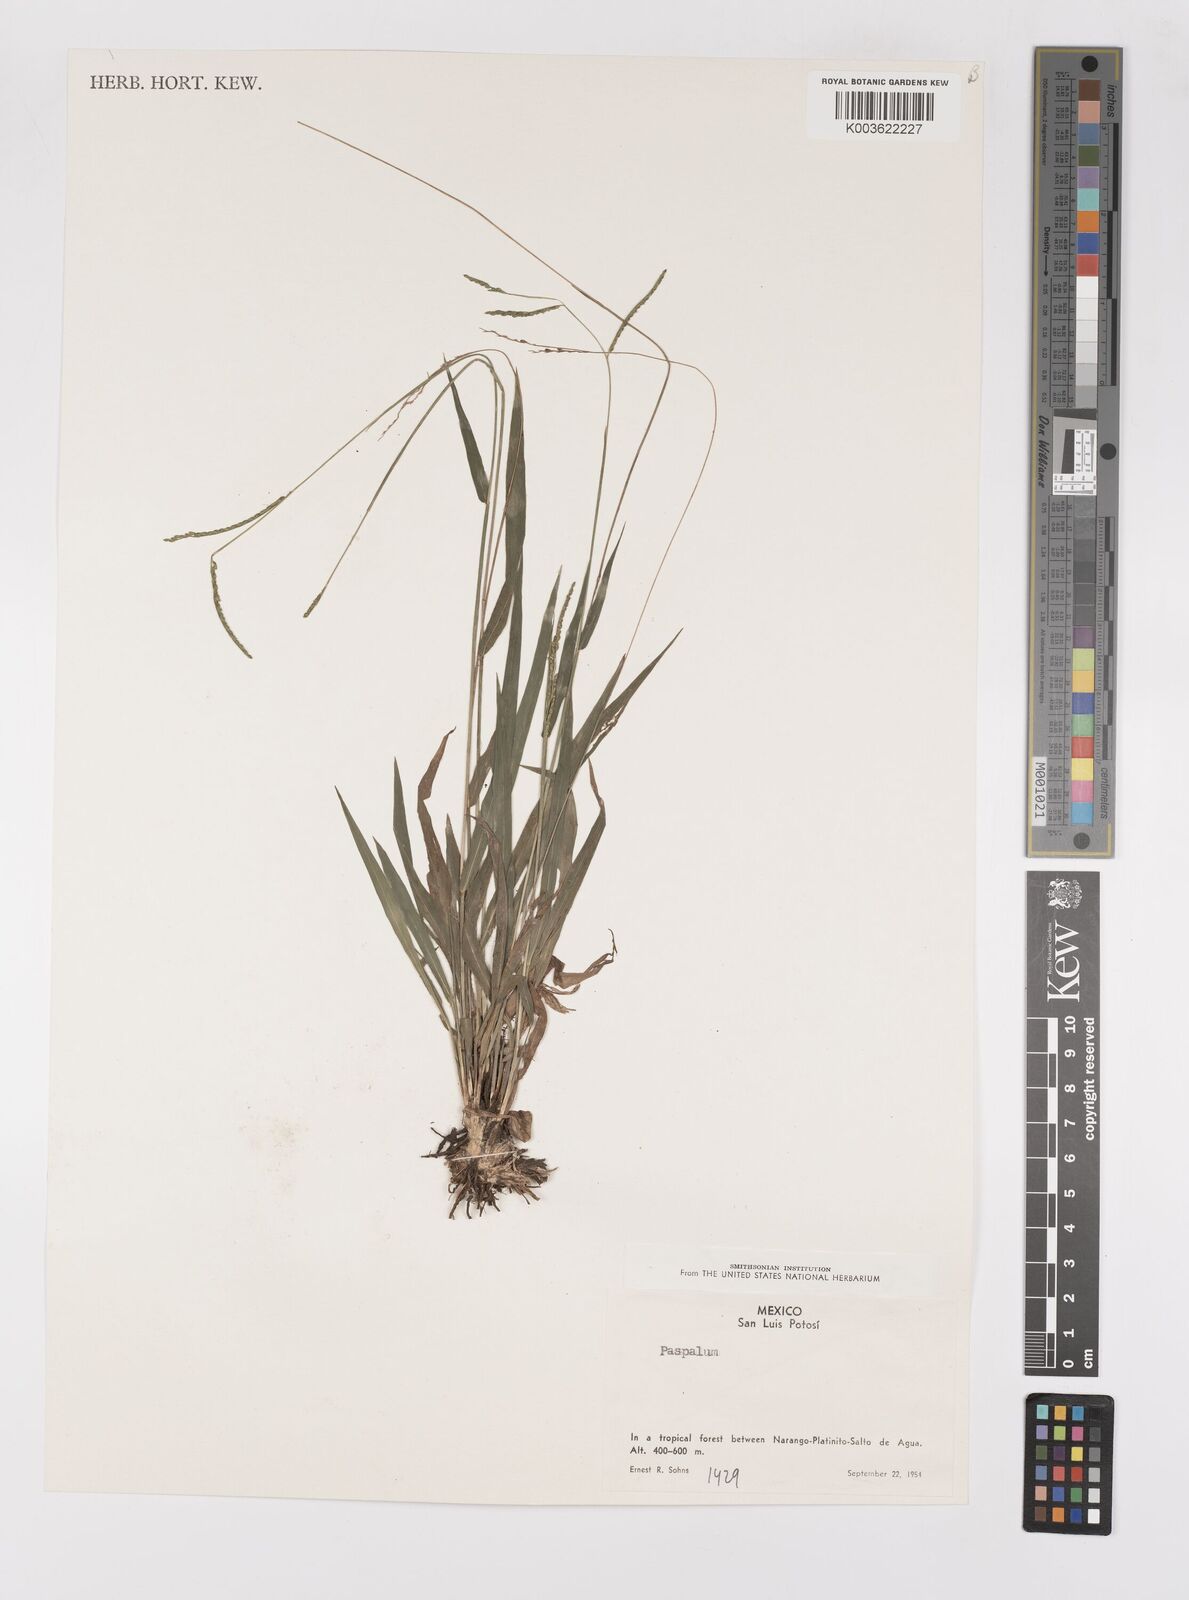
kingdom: Plantae
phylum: Tracheophyta
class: Liliopsida
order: Poales
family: Poaceae
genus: Paspalum
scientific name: Paspalum
